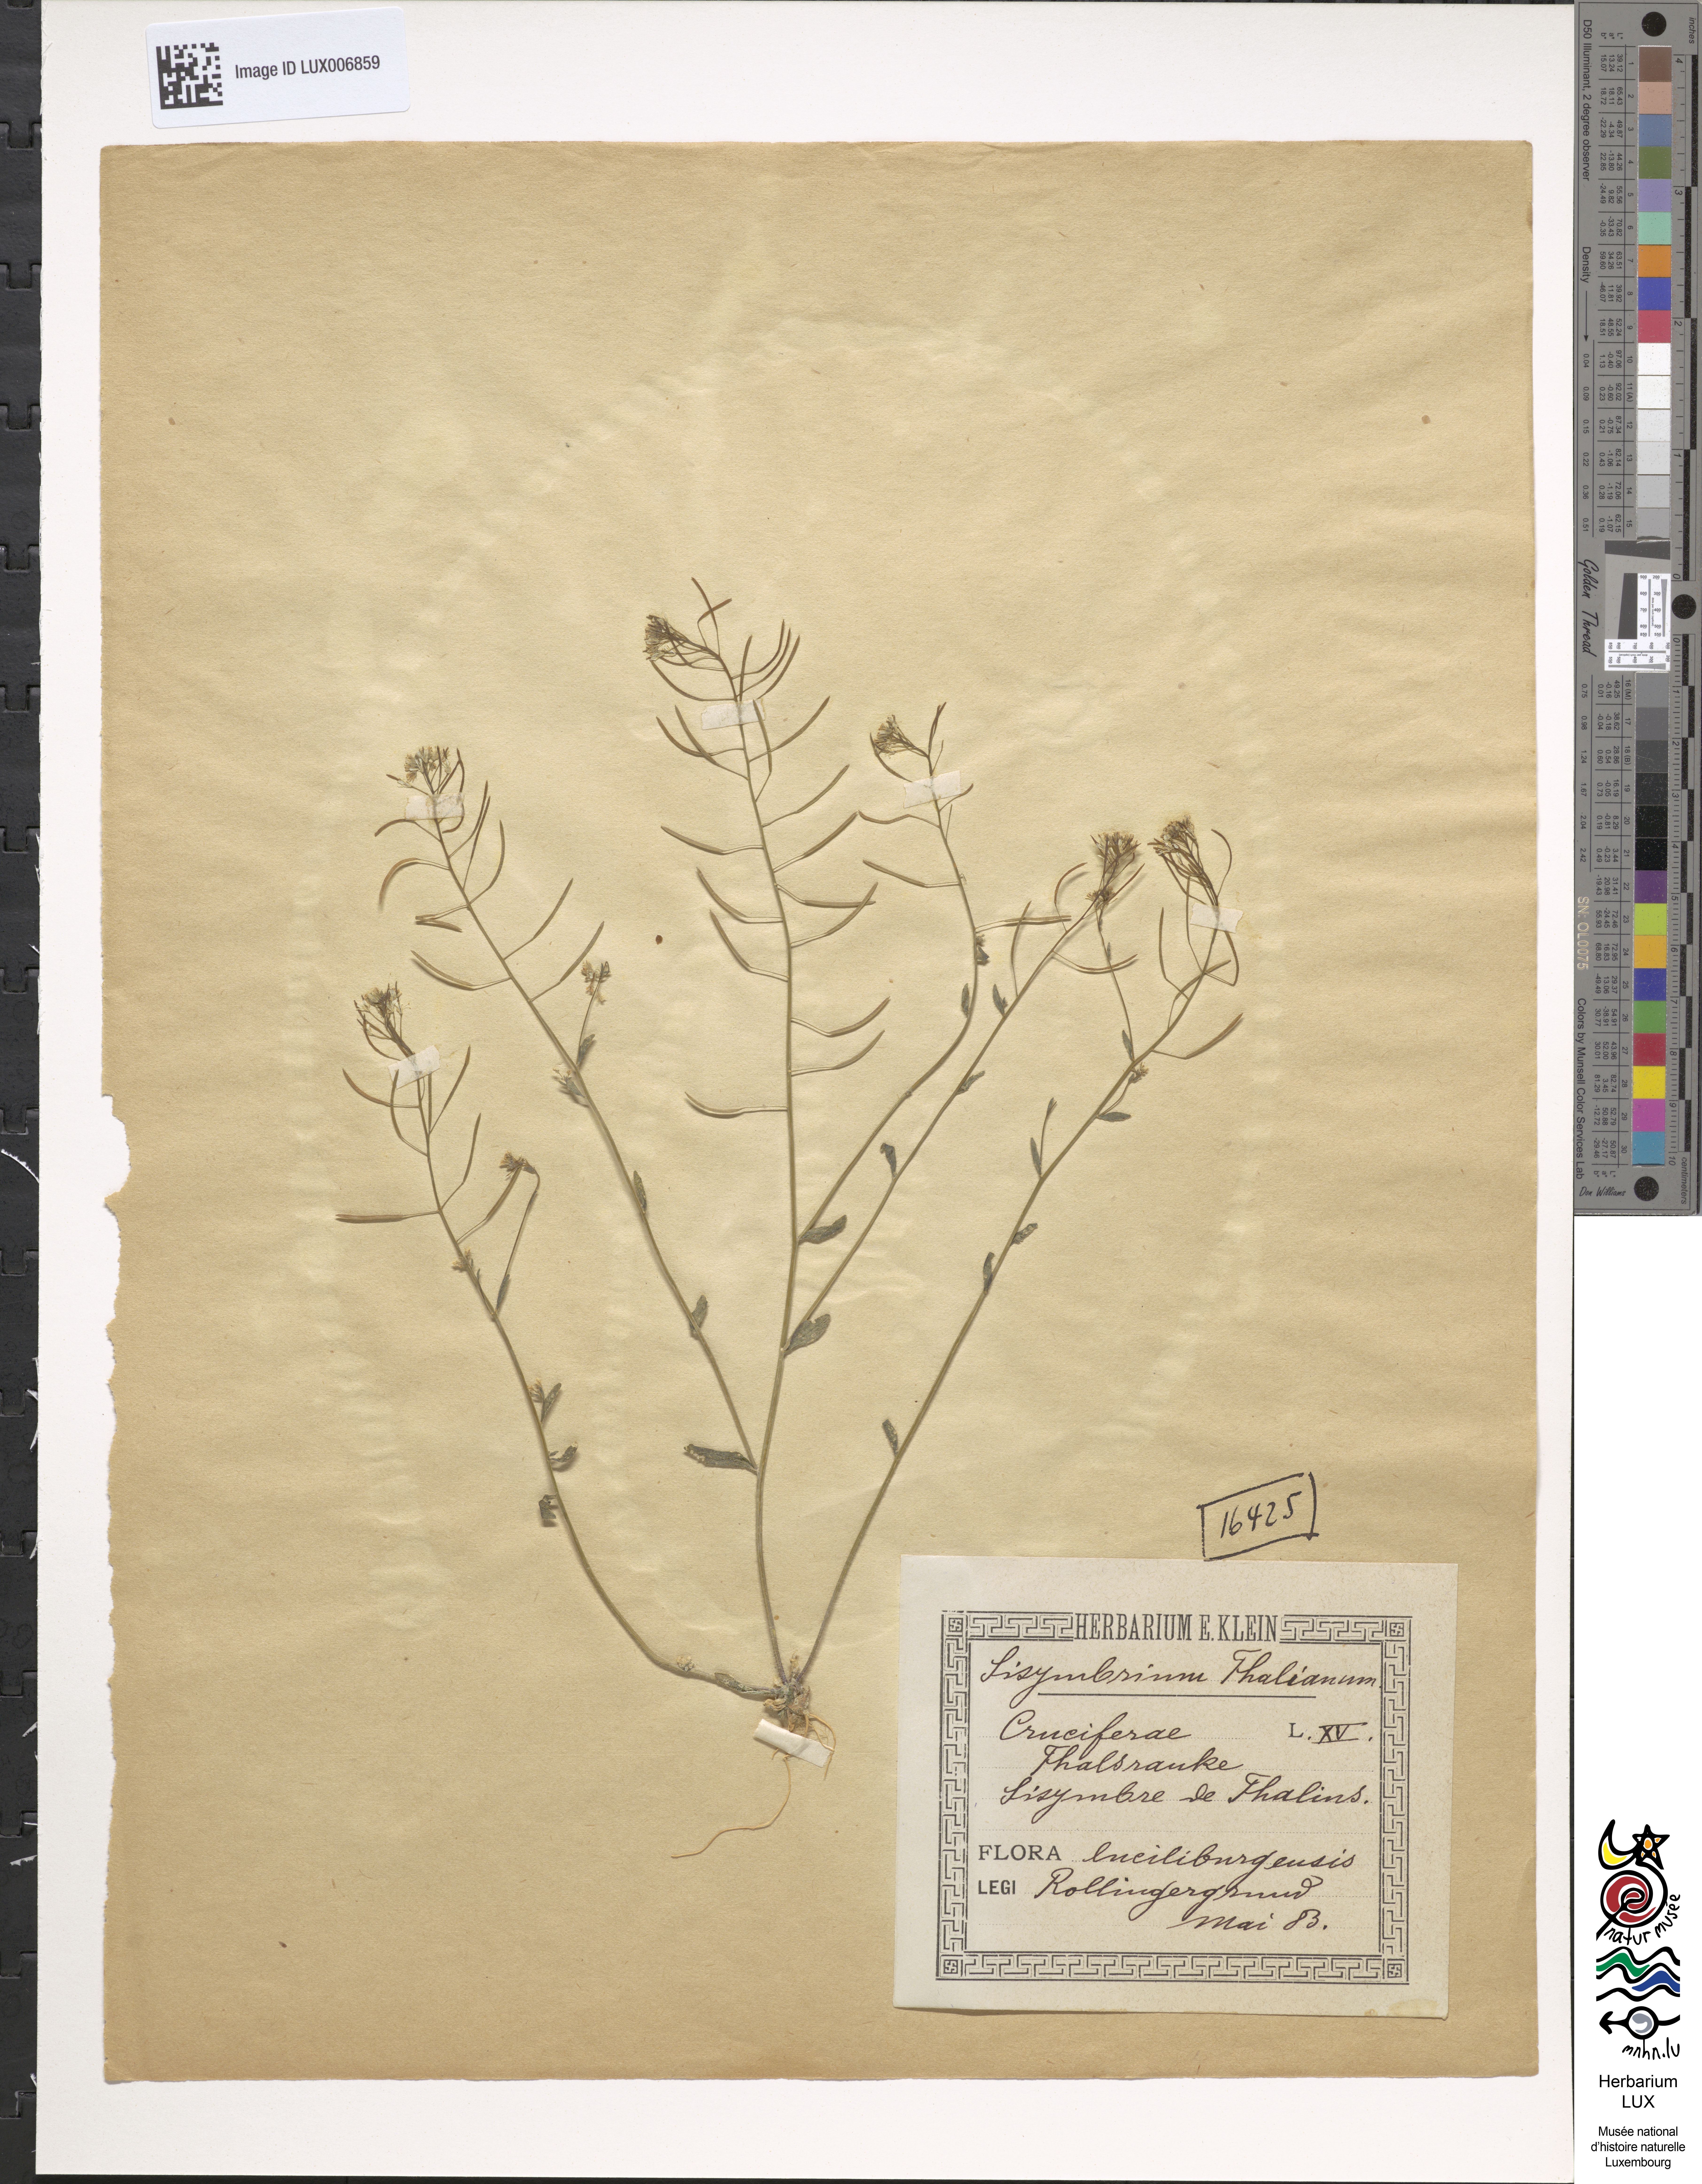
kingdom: Plantae
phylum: Tracheophyta
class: Magnoliopsida
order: Brassicales
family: Brassicaceae
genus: Arabidopsis
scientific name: Arabidopsis thaliana
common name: Thale cress
